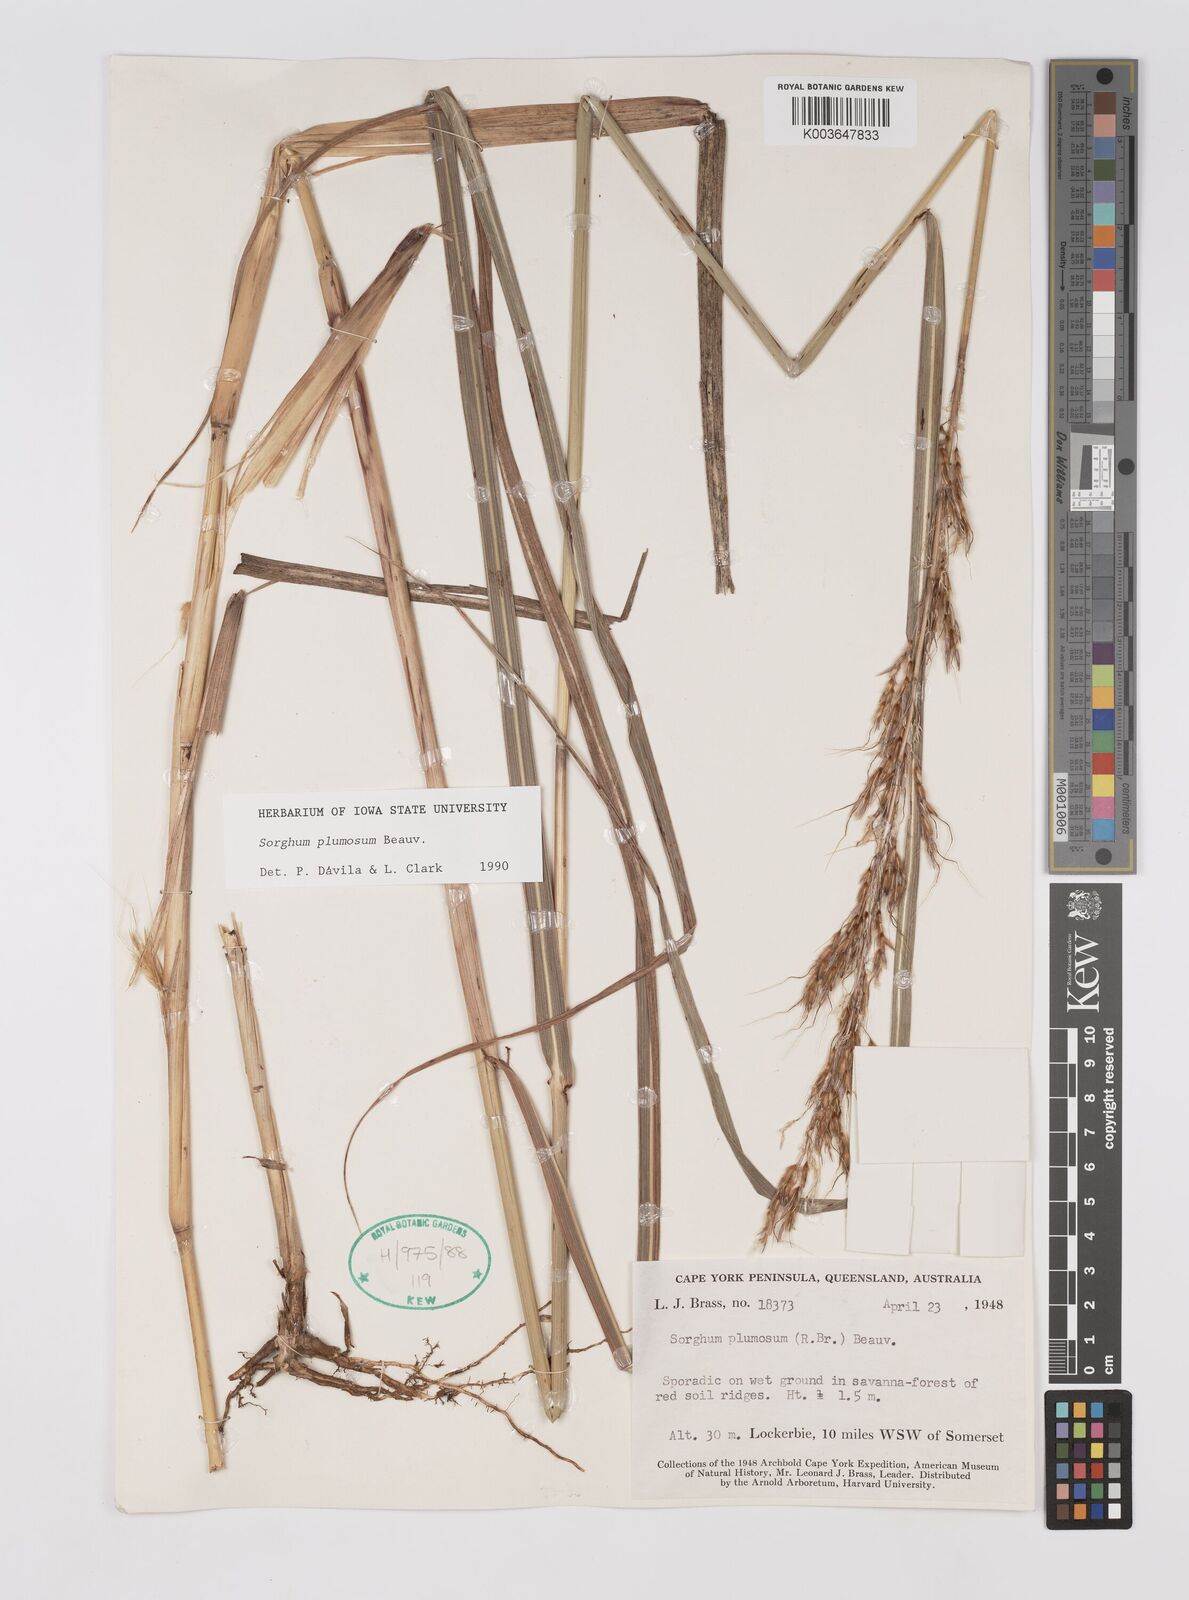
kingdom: Plantae
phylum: Tracheophyta
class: Liliopsida
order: Poales
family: Poaceae
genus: Sarga
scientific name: Sarga plumosa
